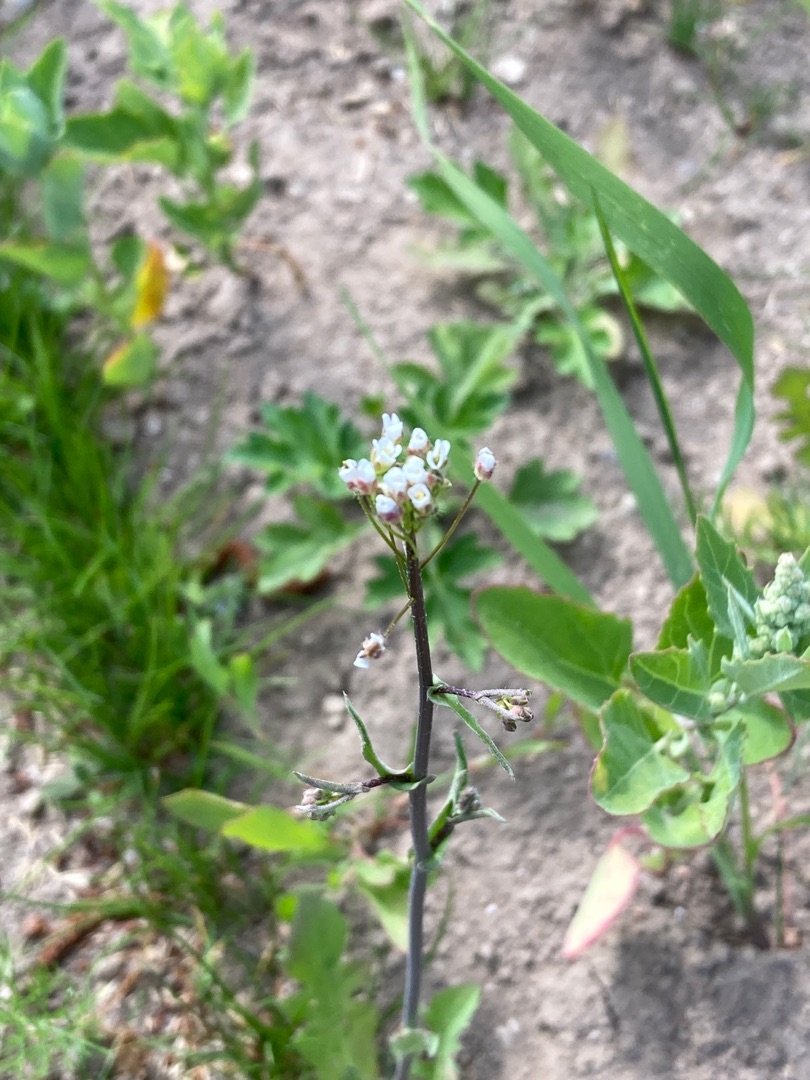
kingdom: Plantae
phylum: Tracheophyta
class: Magnoliopsida
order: Brassicales
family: Brassicaceae
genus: Capsella
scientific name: Capsella bursa-pastoris
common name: Hyrdetaske
